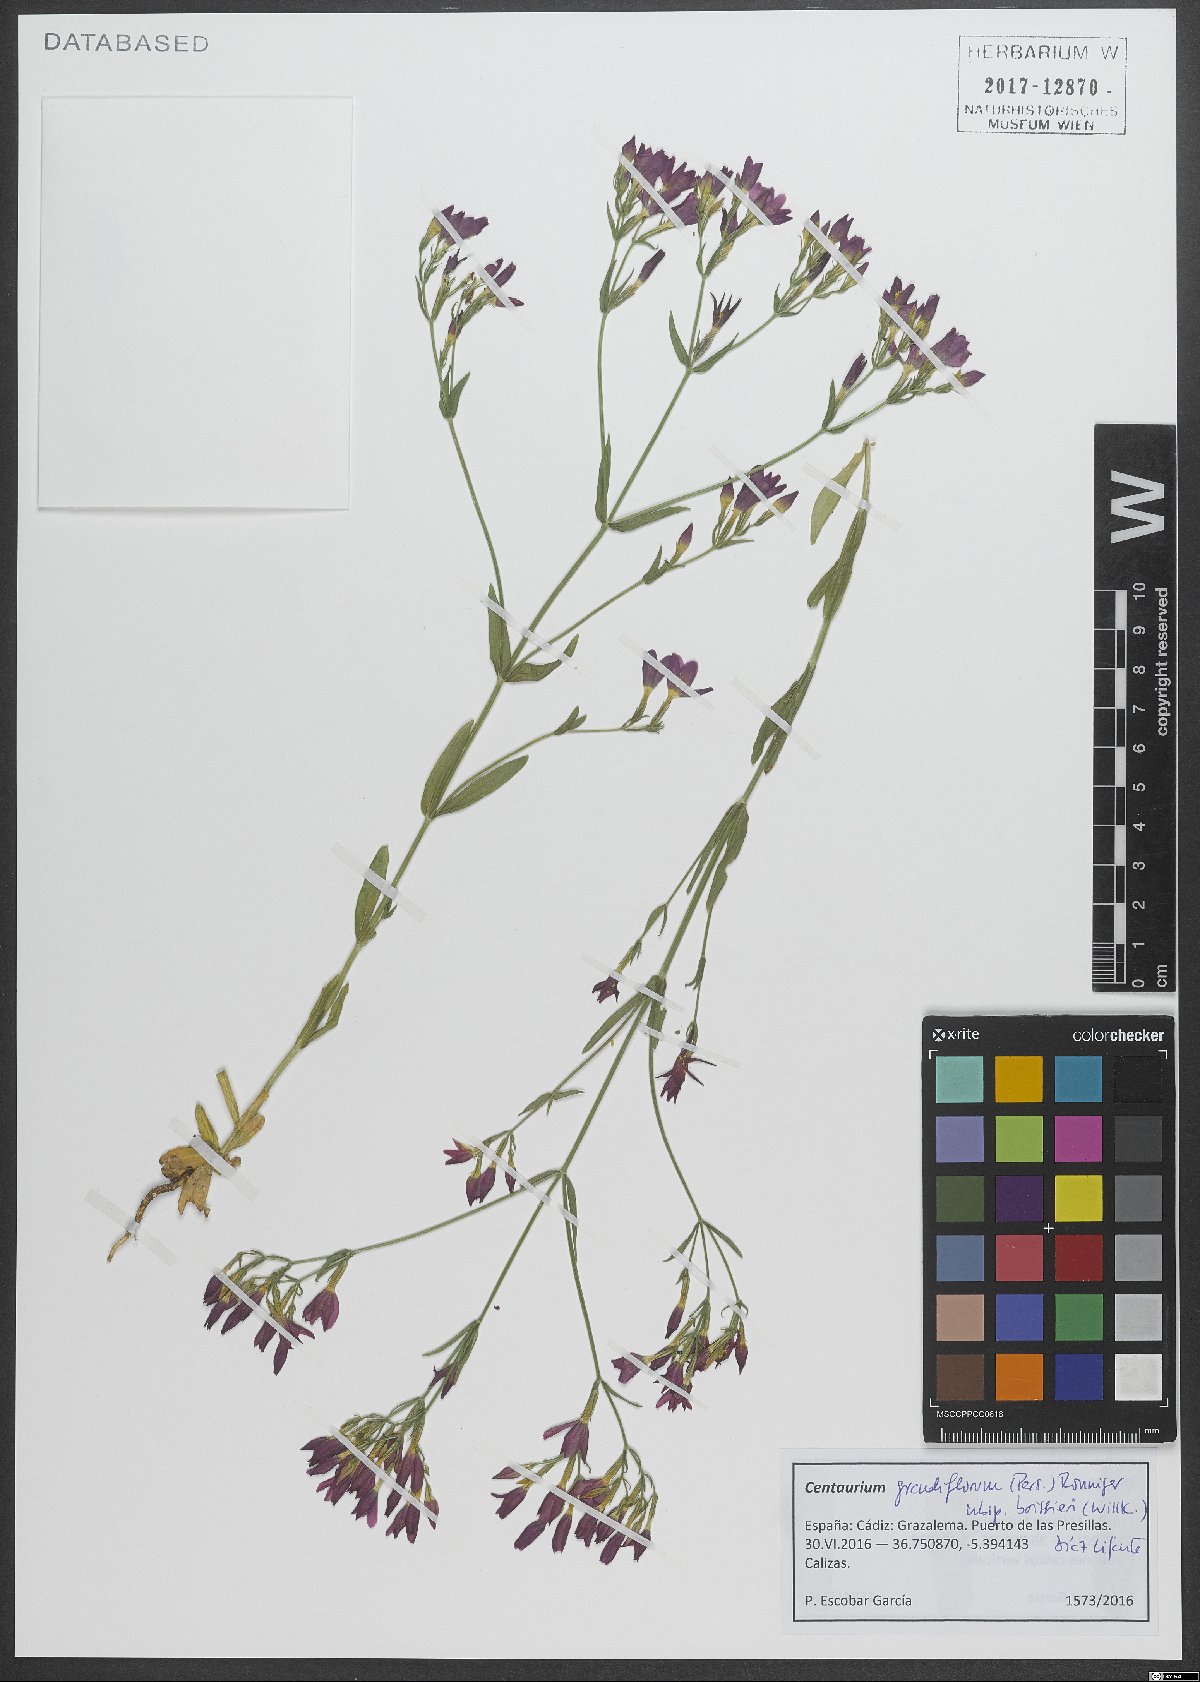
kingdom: Plantae
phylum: Tracheophyta
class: Magnoliopsida
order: Gentianales
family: Gentianaceae
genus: Centaurium
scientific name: Centaurium grandiflorum
